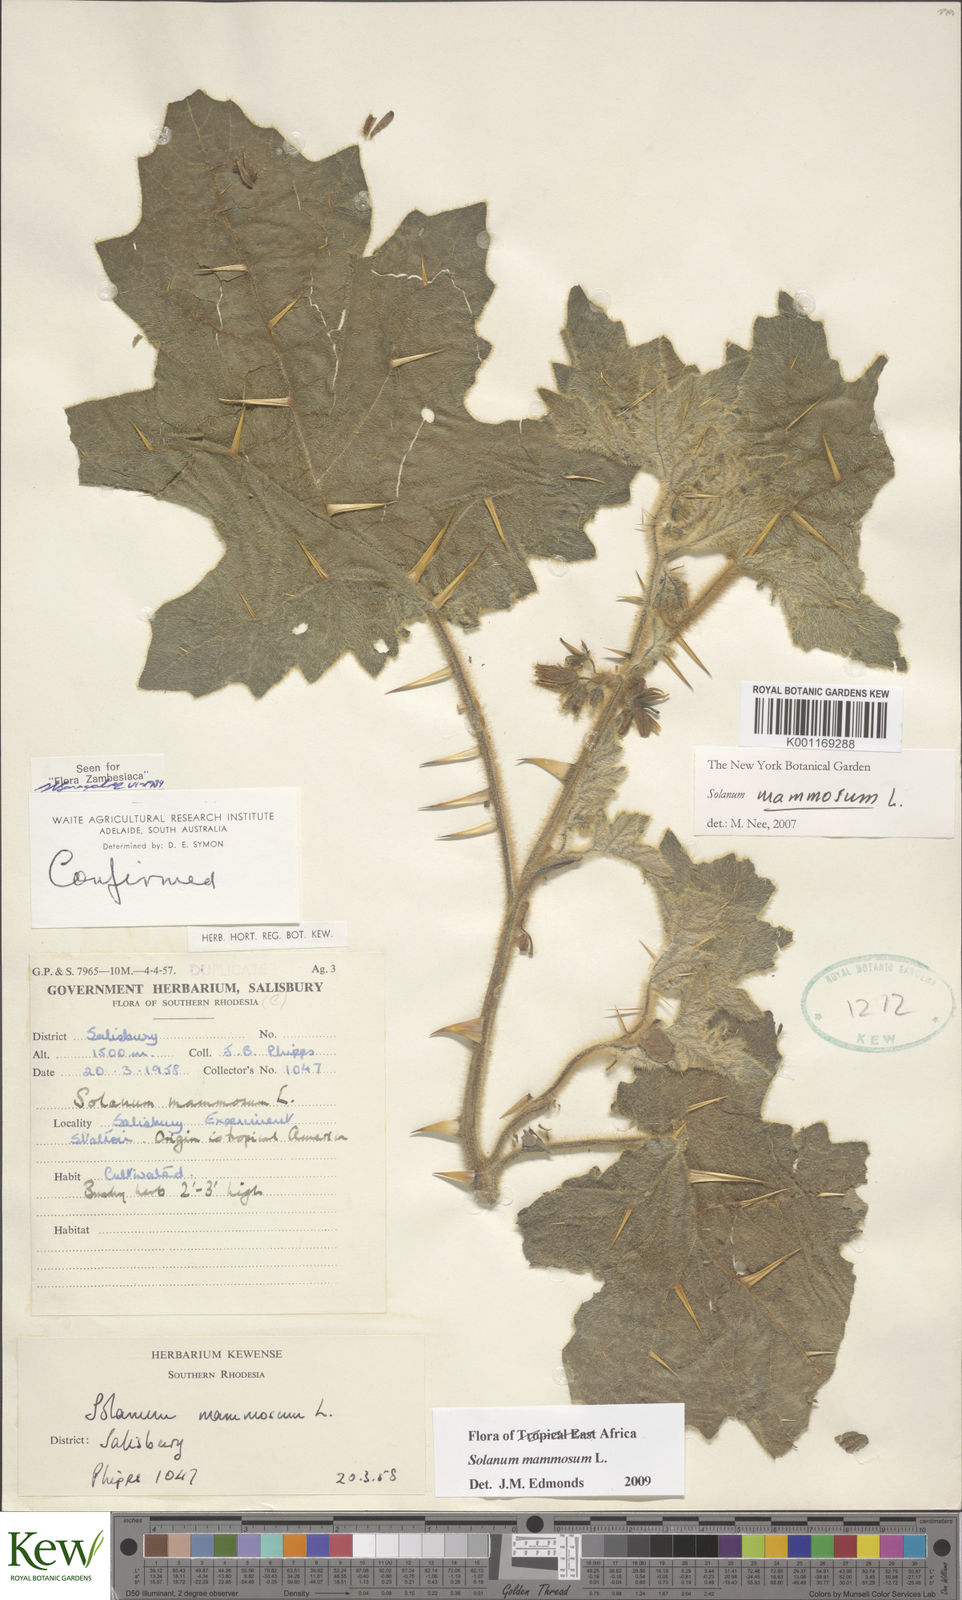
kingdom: Plantae
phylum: Tracheophyta
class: Magnoliopsida
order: Solanales
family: Solanaceae
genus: Solanum
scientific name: Solanum mammosum
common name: Nipple fruit
